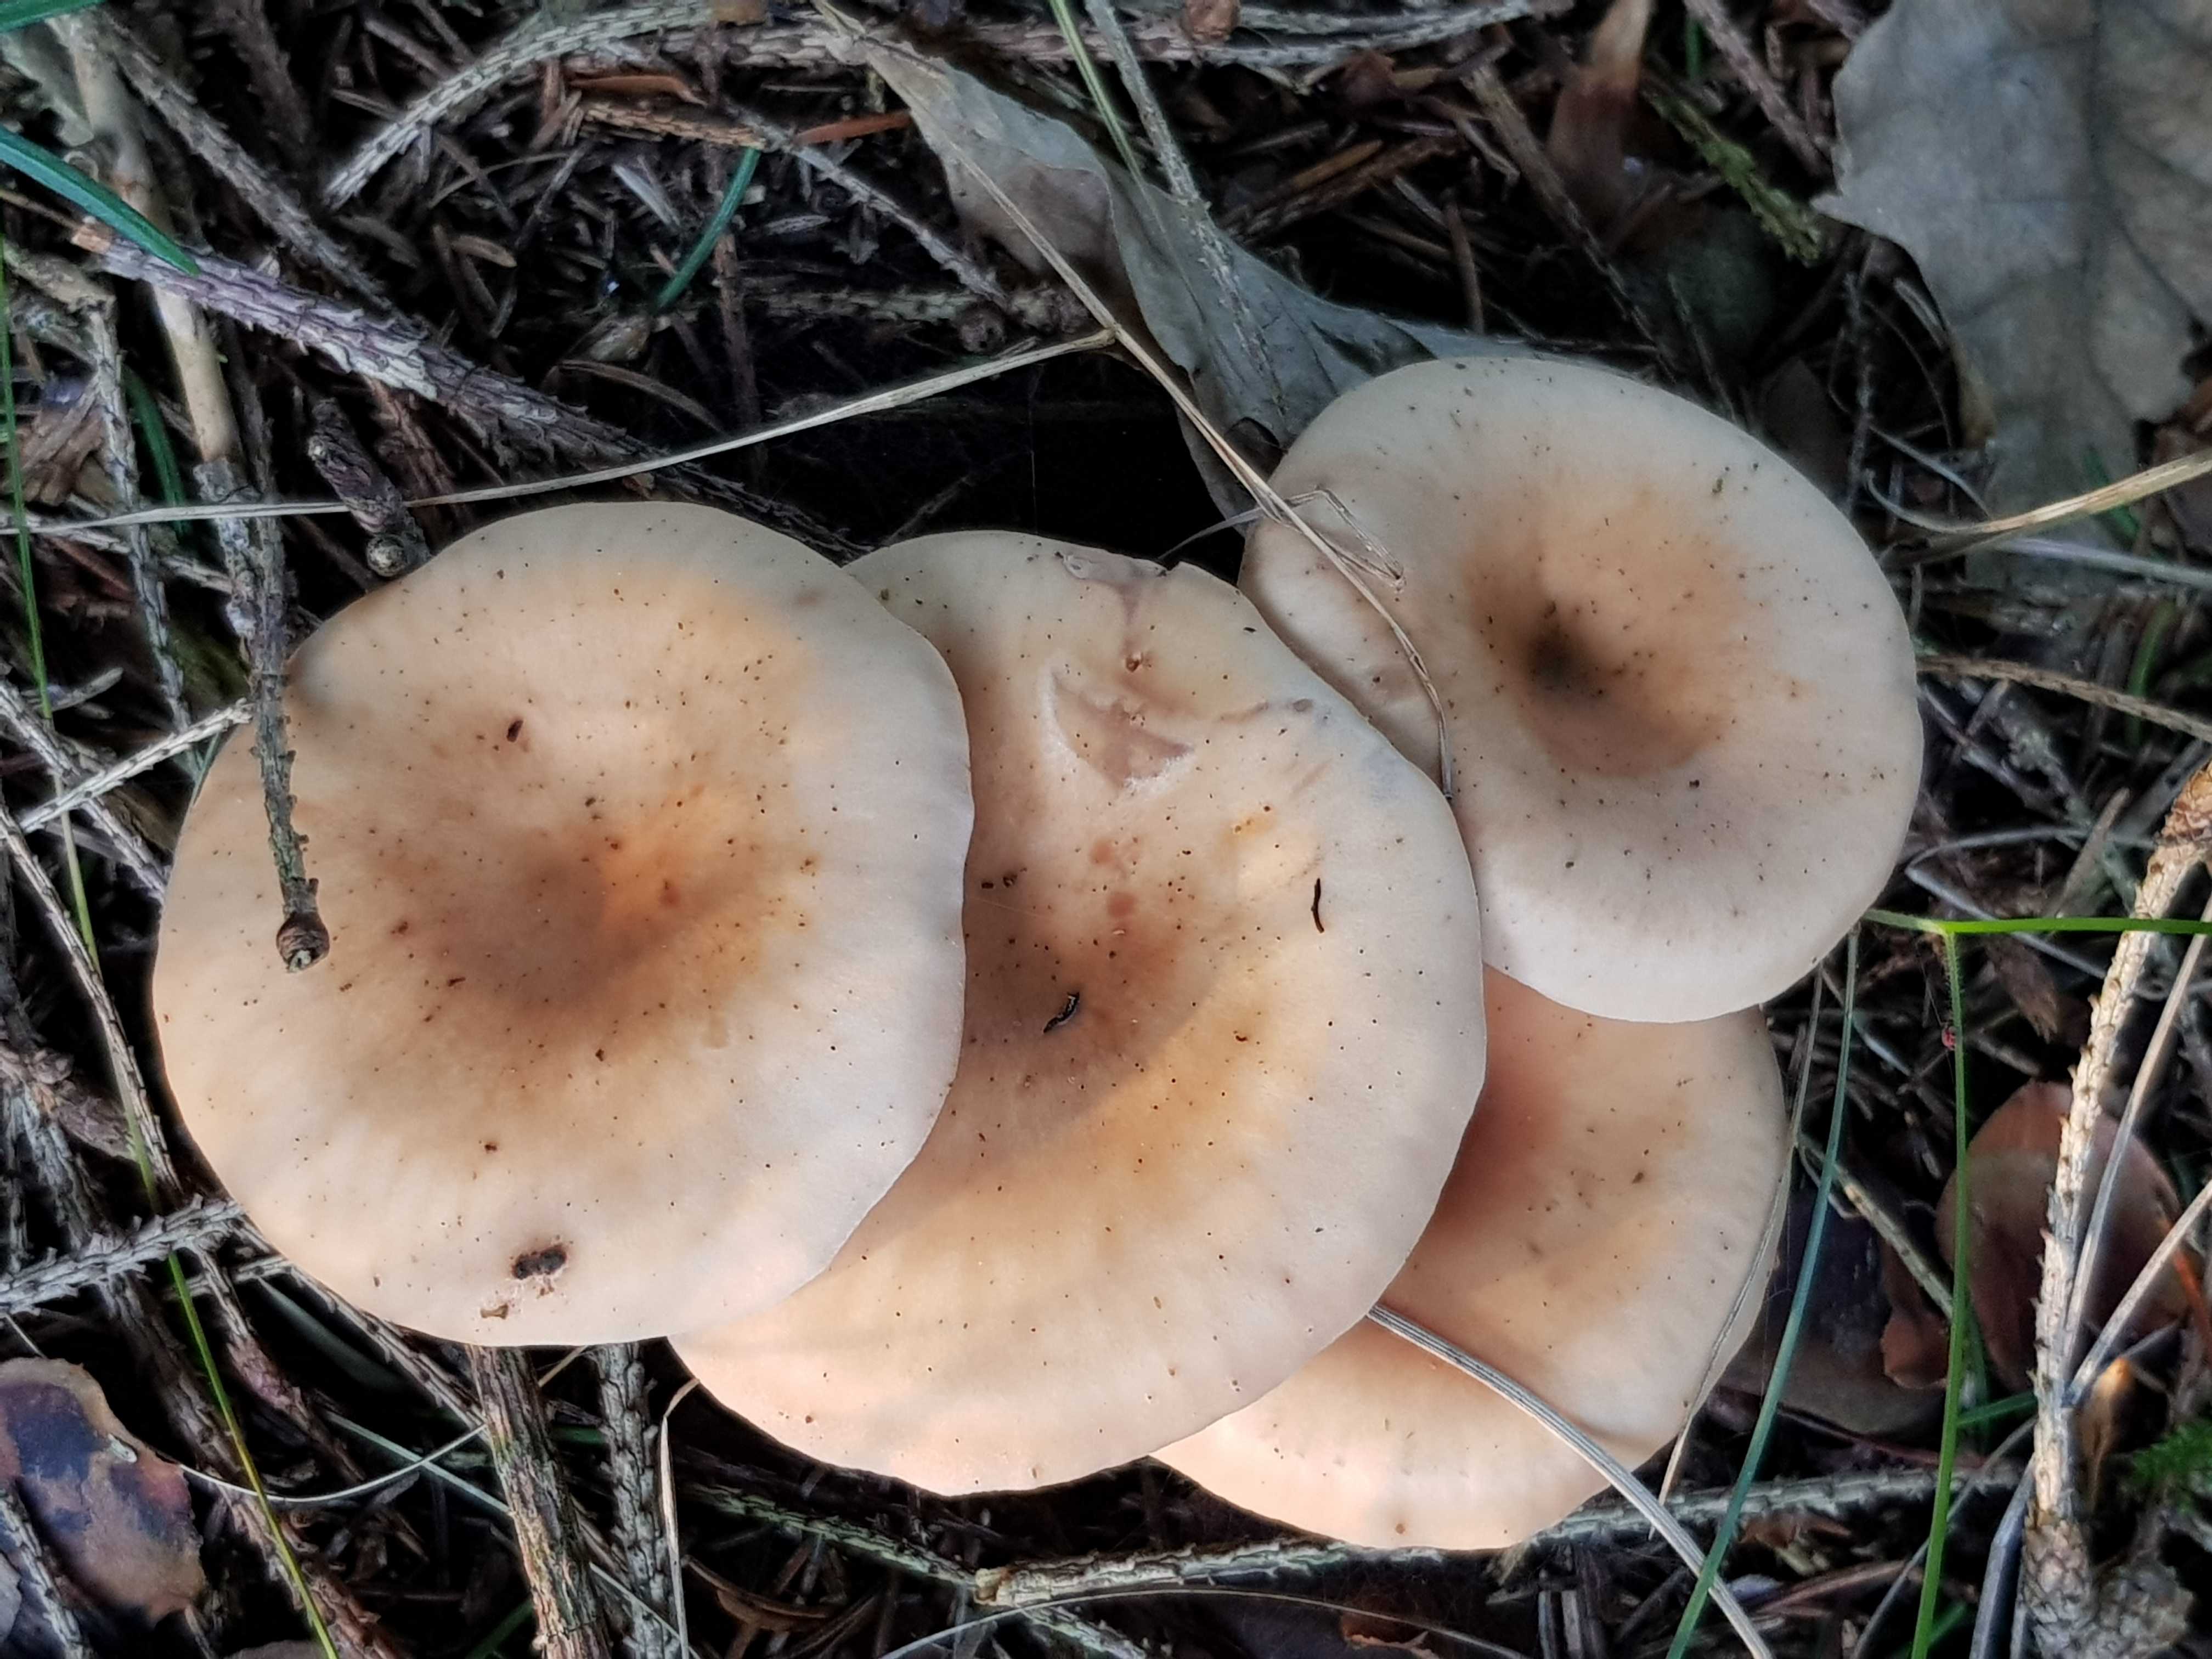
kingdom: Fungi
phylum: Basidiomycota
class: Agaricomycetes
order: Agaricales
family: Tricholomataceae
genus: Paralepista
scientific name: Paralepista flaccida
